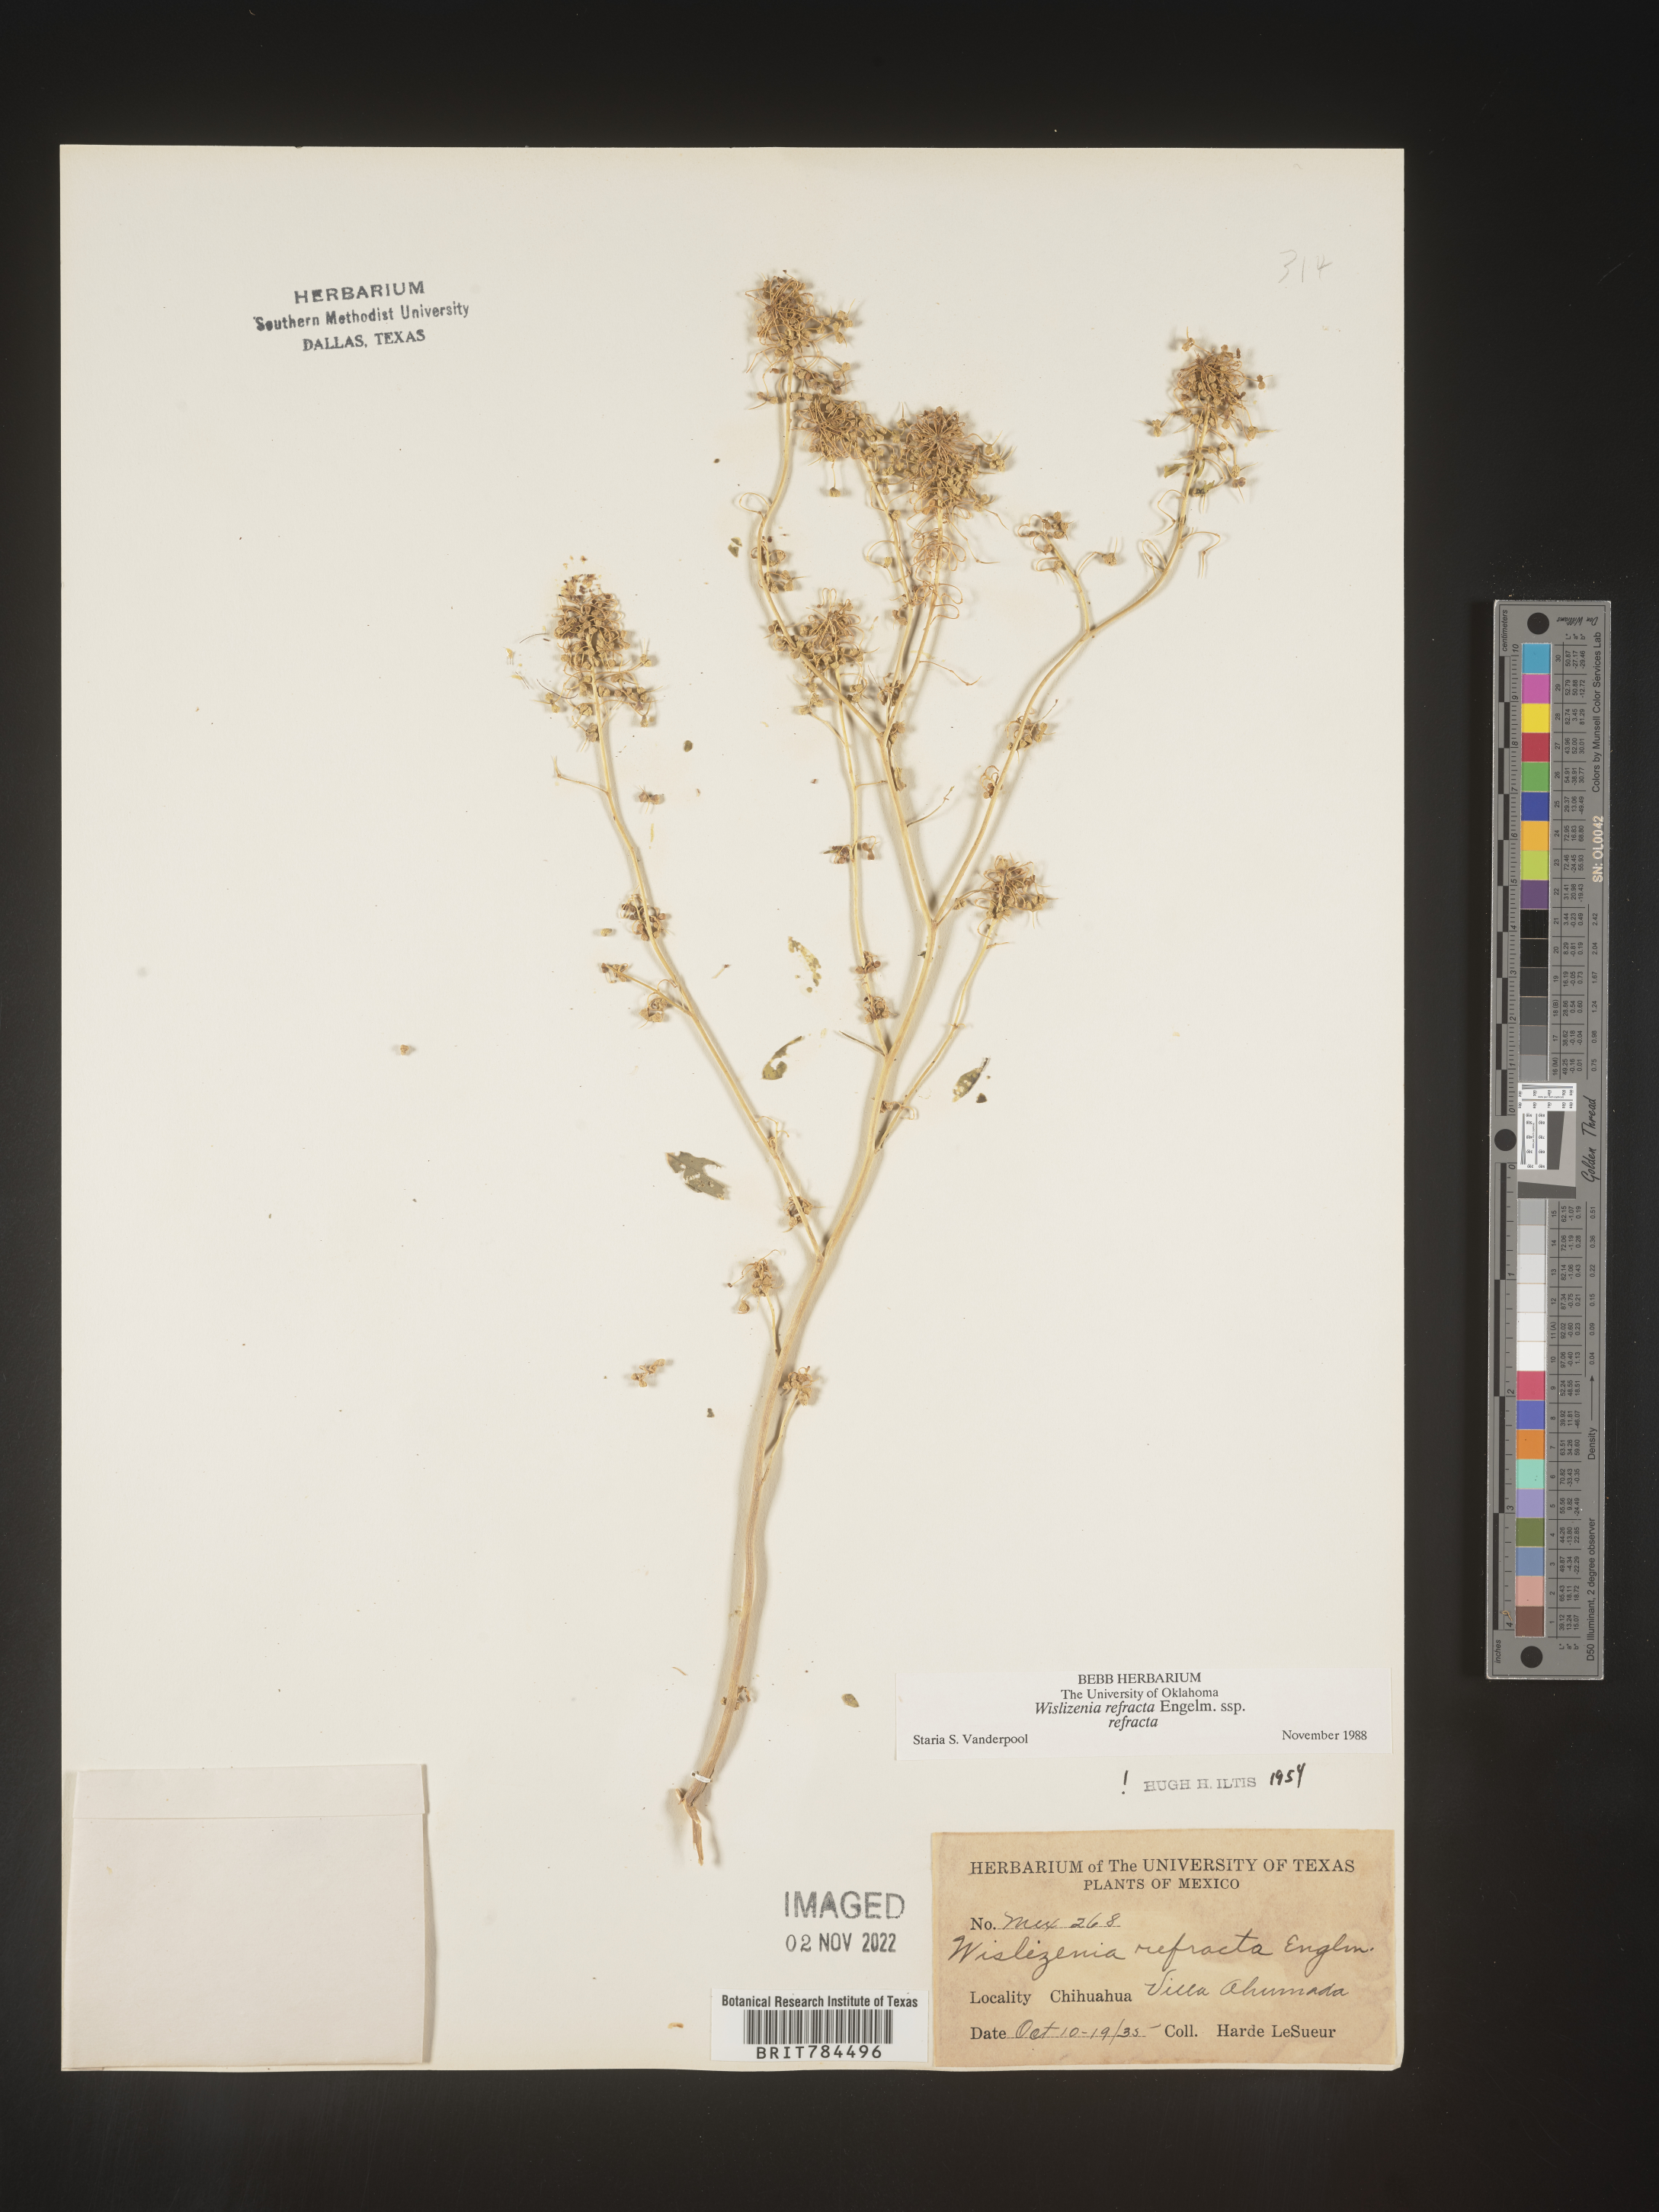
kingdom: Plantae
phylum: Tracheophyta
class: Magnoliopsida
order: Brassicales
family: Cleomaceae
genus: Cleomella
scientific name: Cleomella
